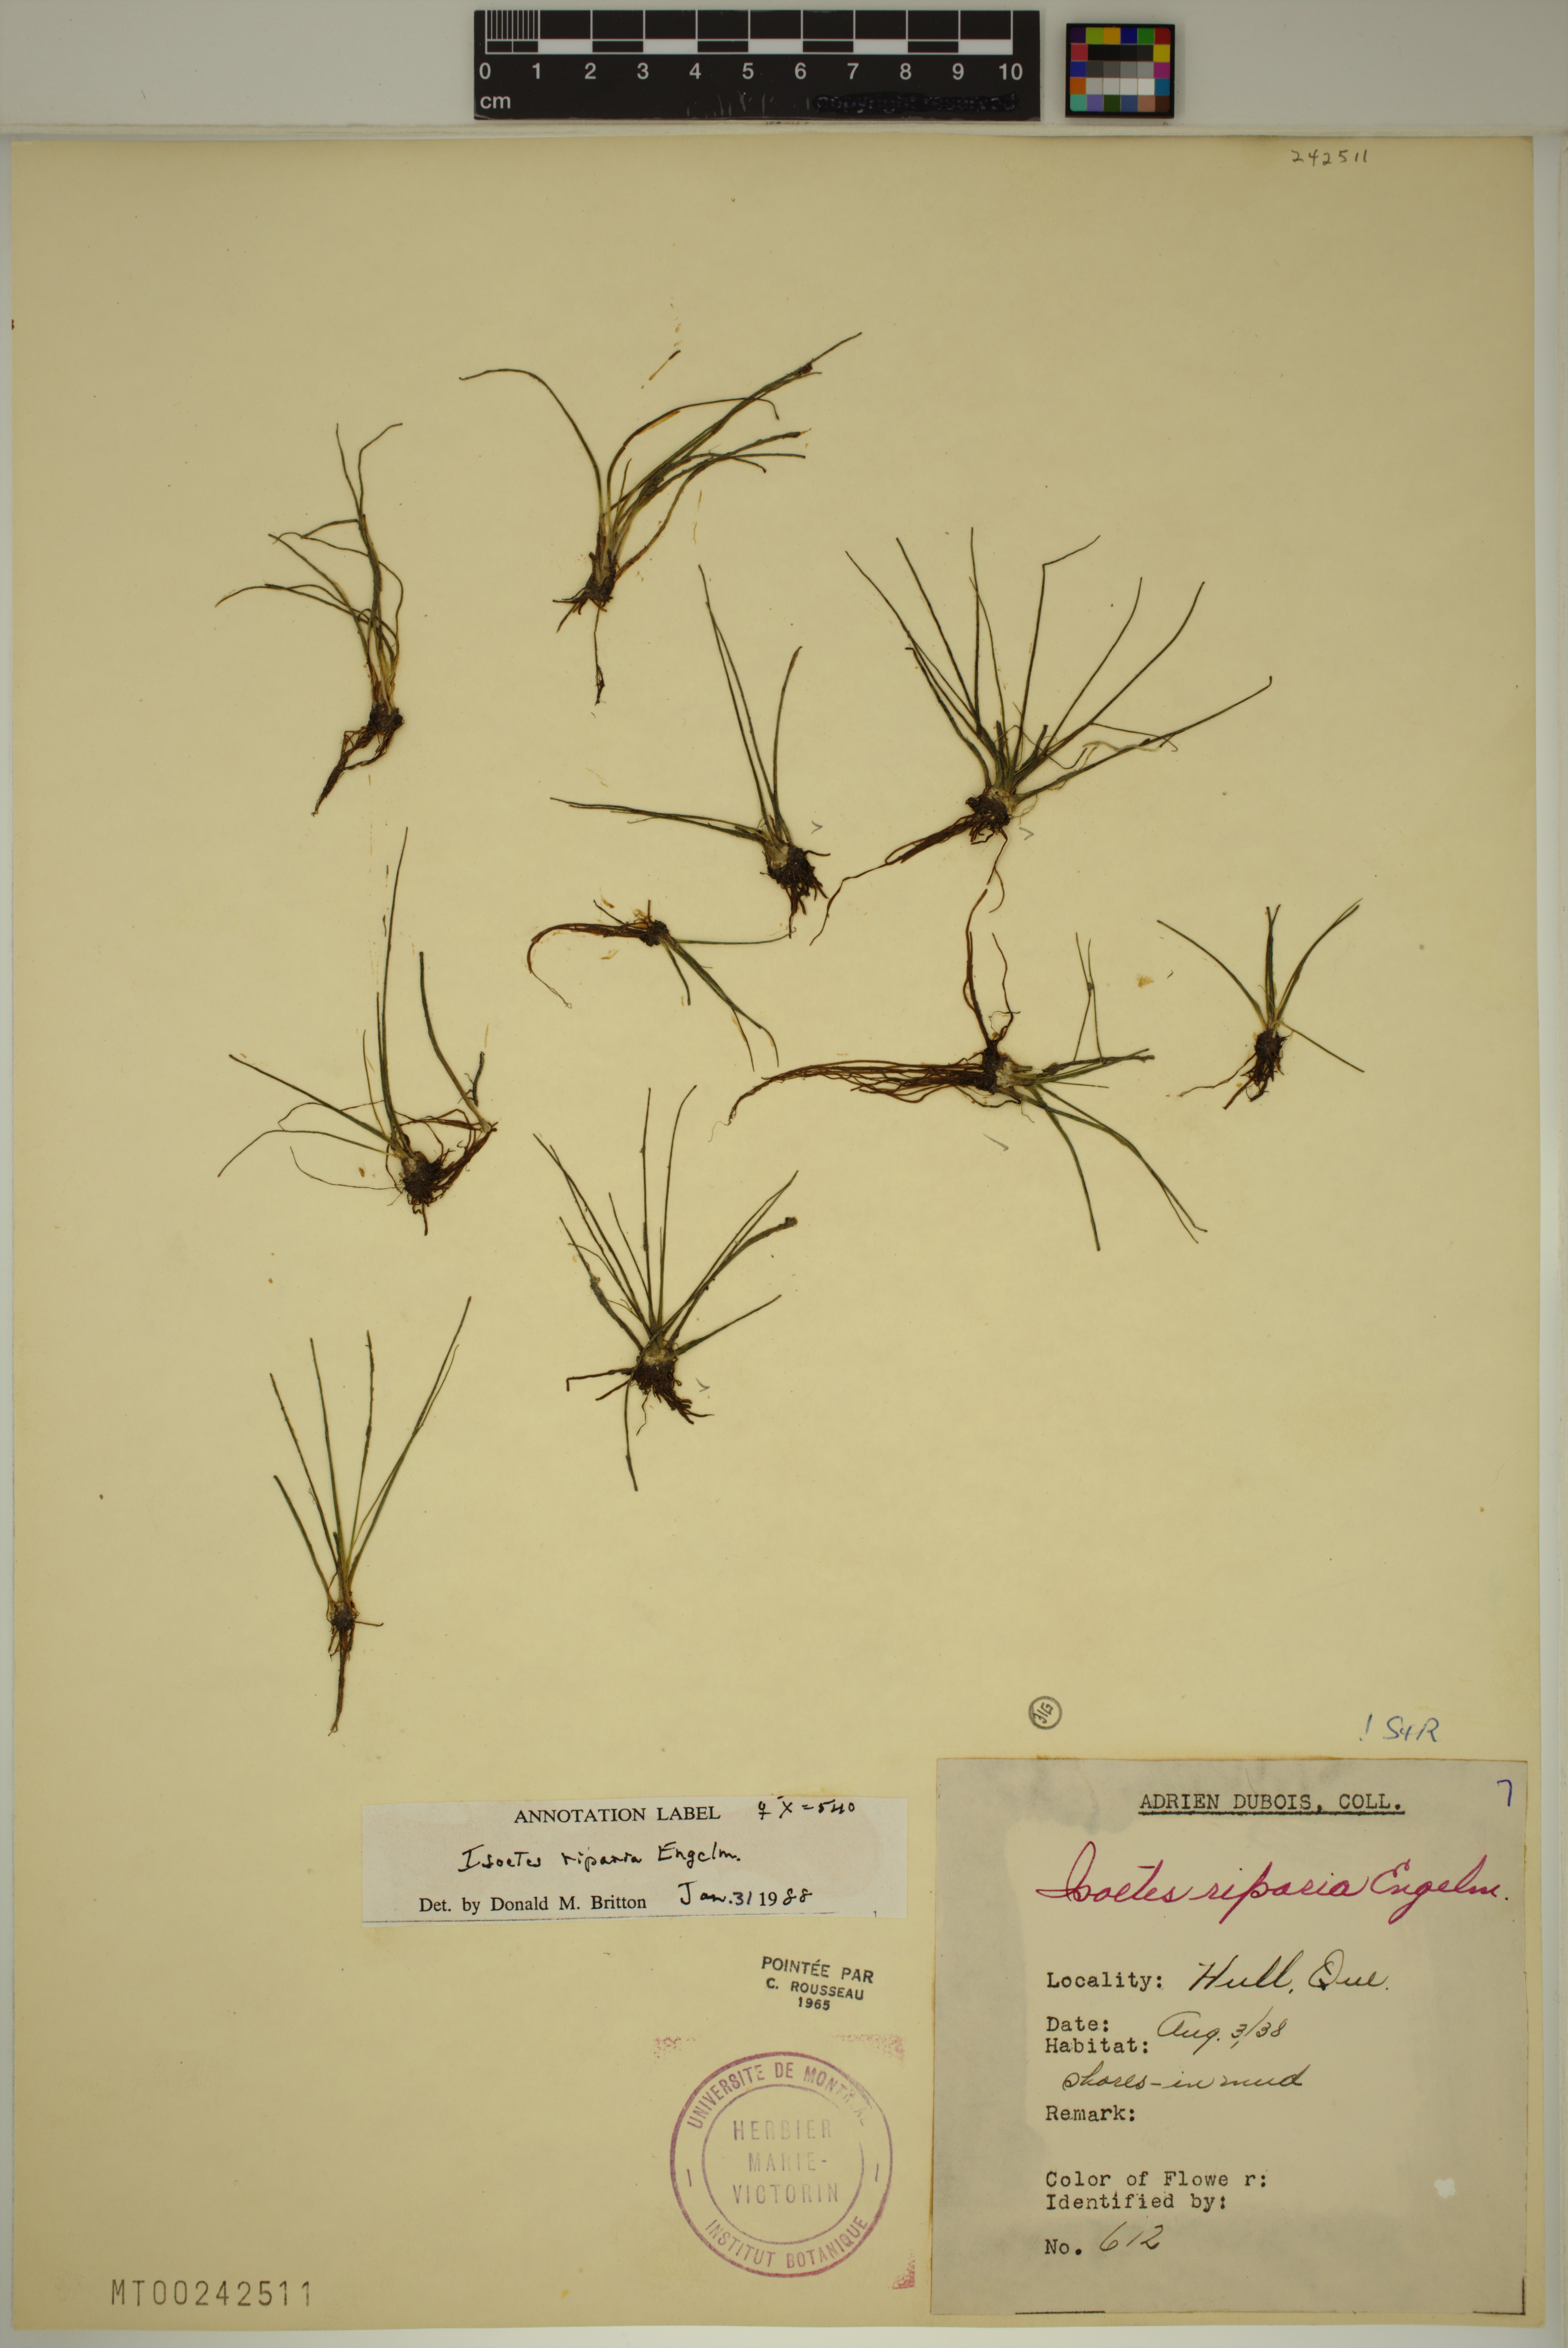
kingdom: Plantae
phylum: Tracheophyta
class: Lycopodiopsida
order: Isoetales
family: Isoetaceae
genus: Isoetes
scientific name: Isoetes septentrionalis
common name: Northern quillwort
